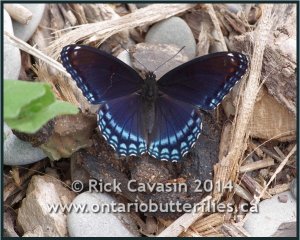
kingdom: Animalia
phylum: Arthropoda
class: Insecta
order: Lepidoptera
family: Nymphalidae
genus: Limenitis
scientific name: Limenitis astyanax
